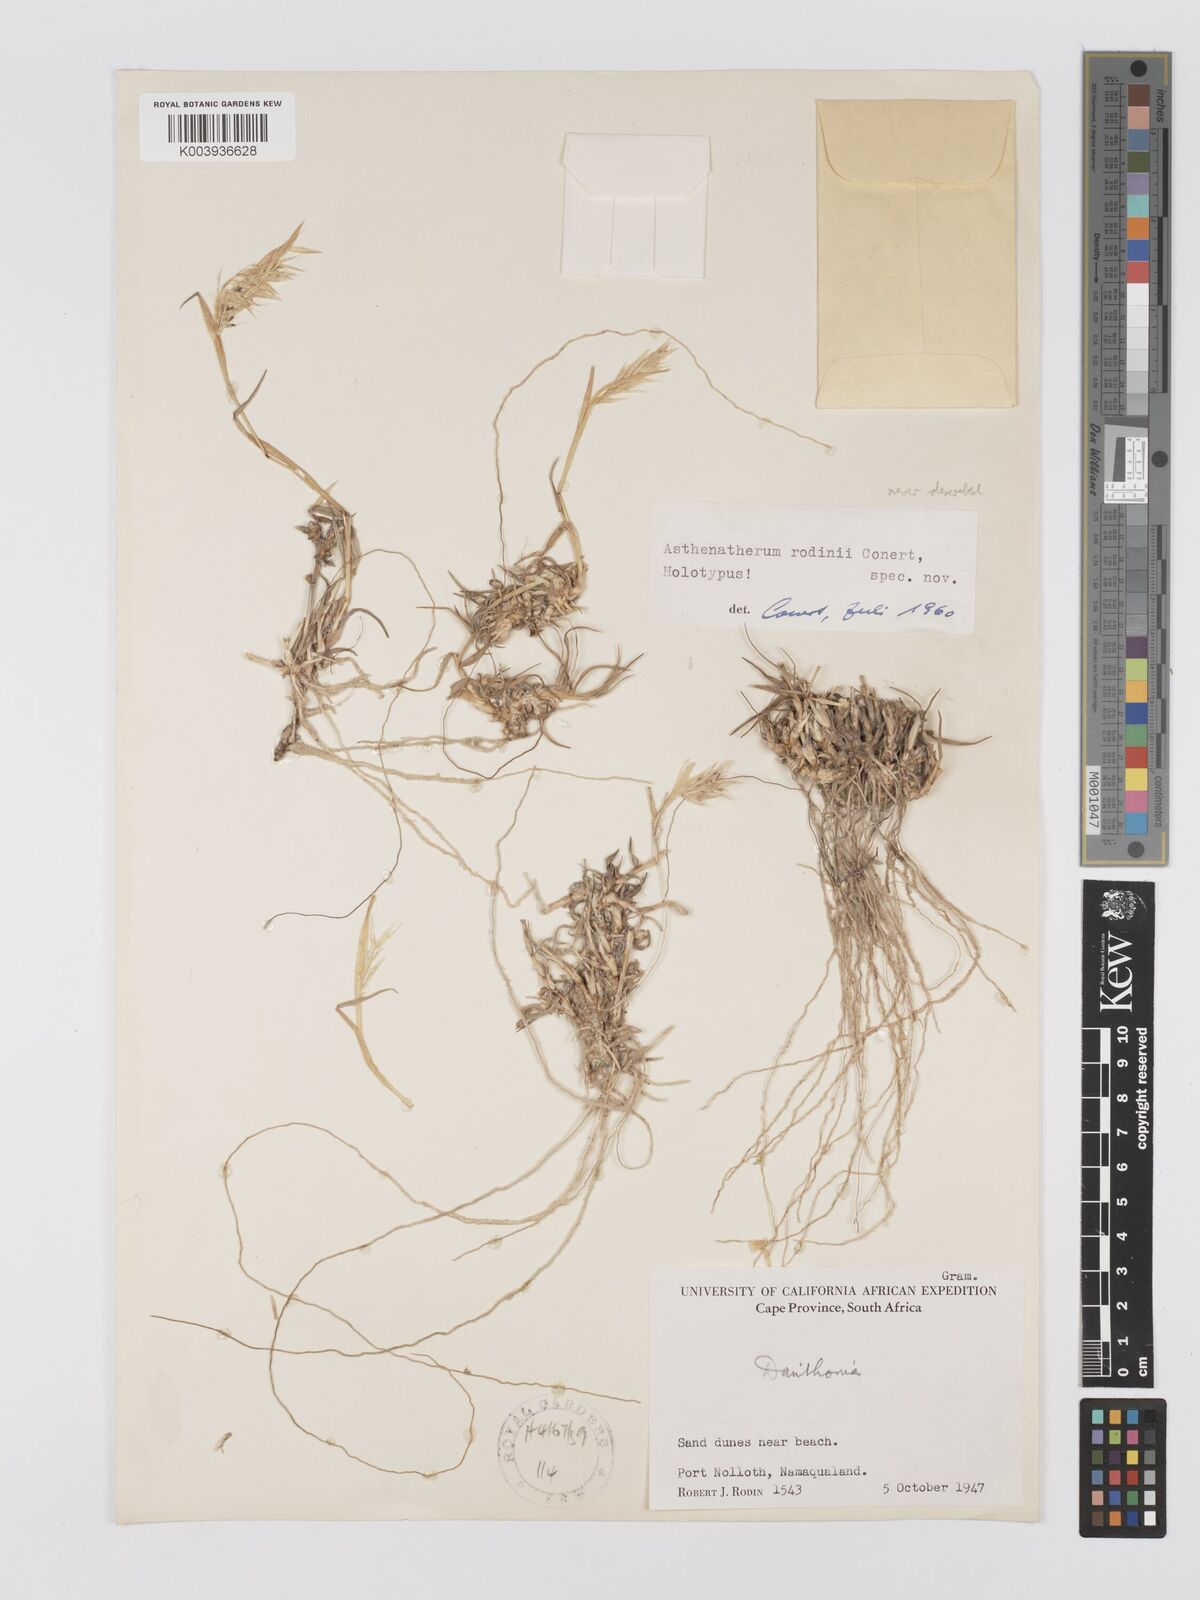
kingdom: Plantae
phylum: Tracheophyta
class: Liliopsida
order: Poales
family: Poaceae
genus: Centropodia
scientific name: Centropodia glauca
